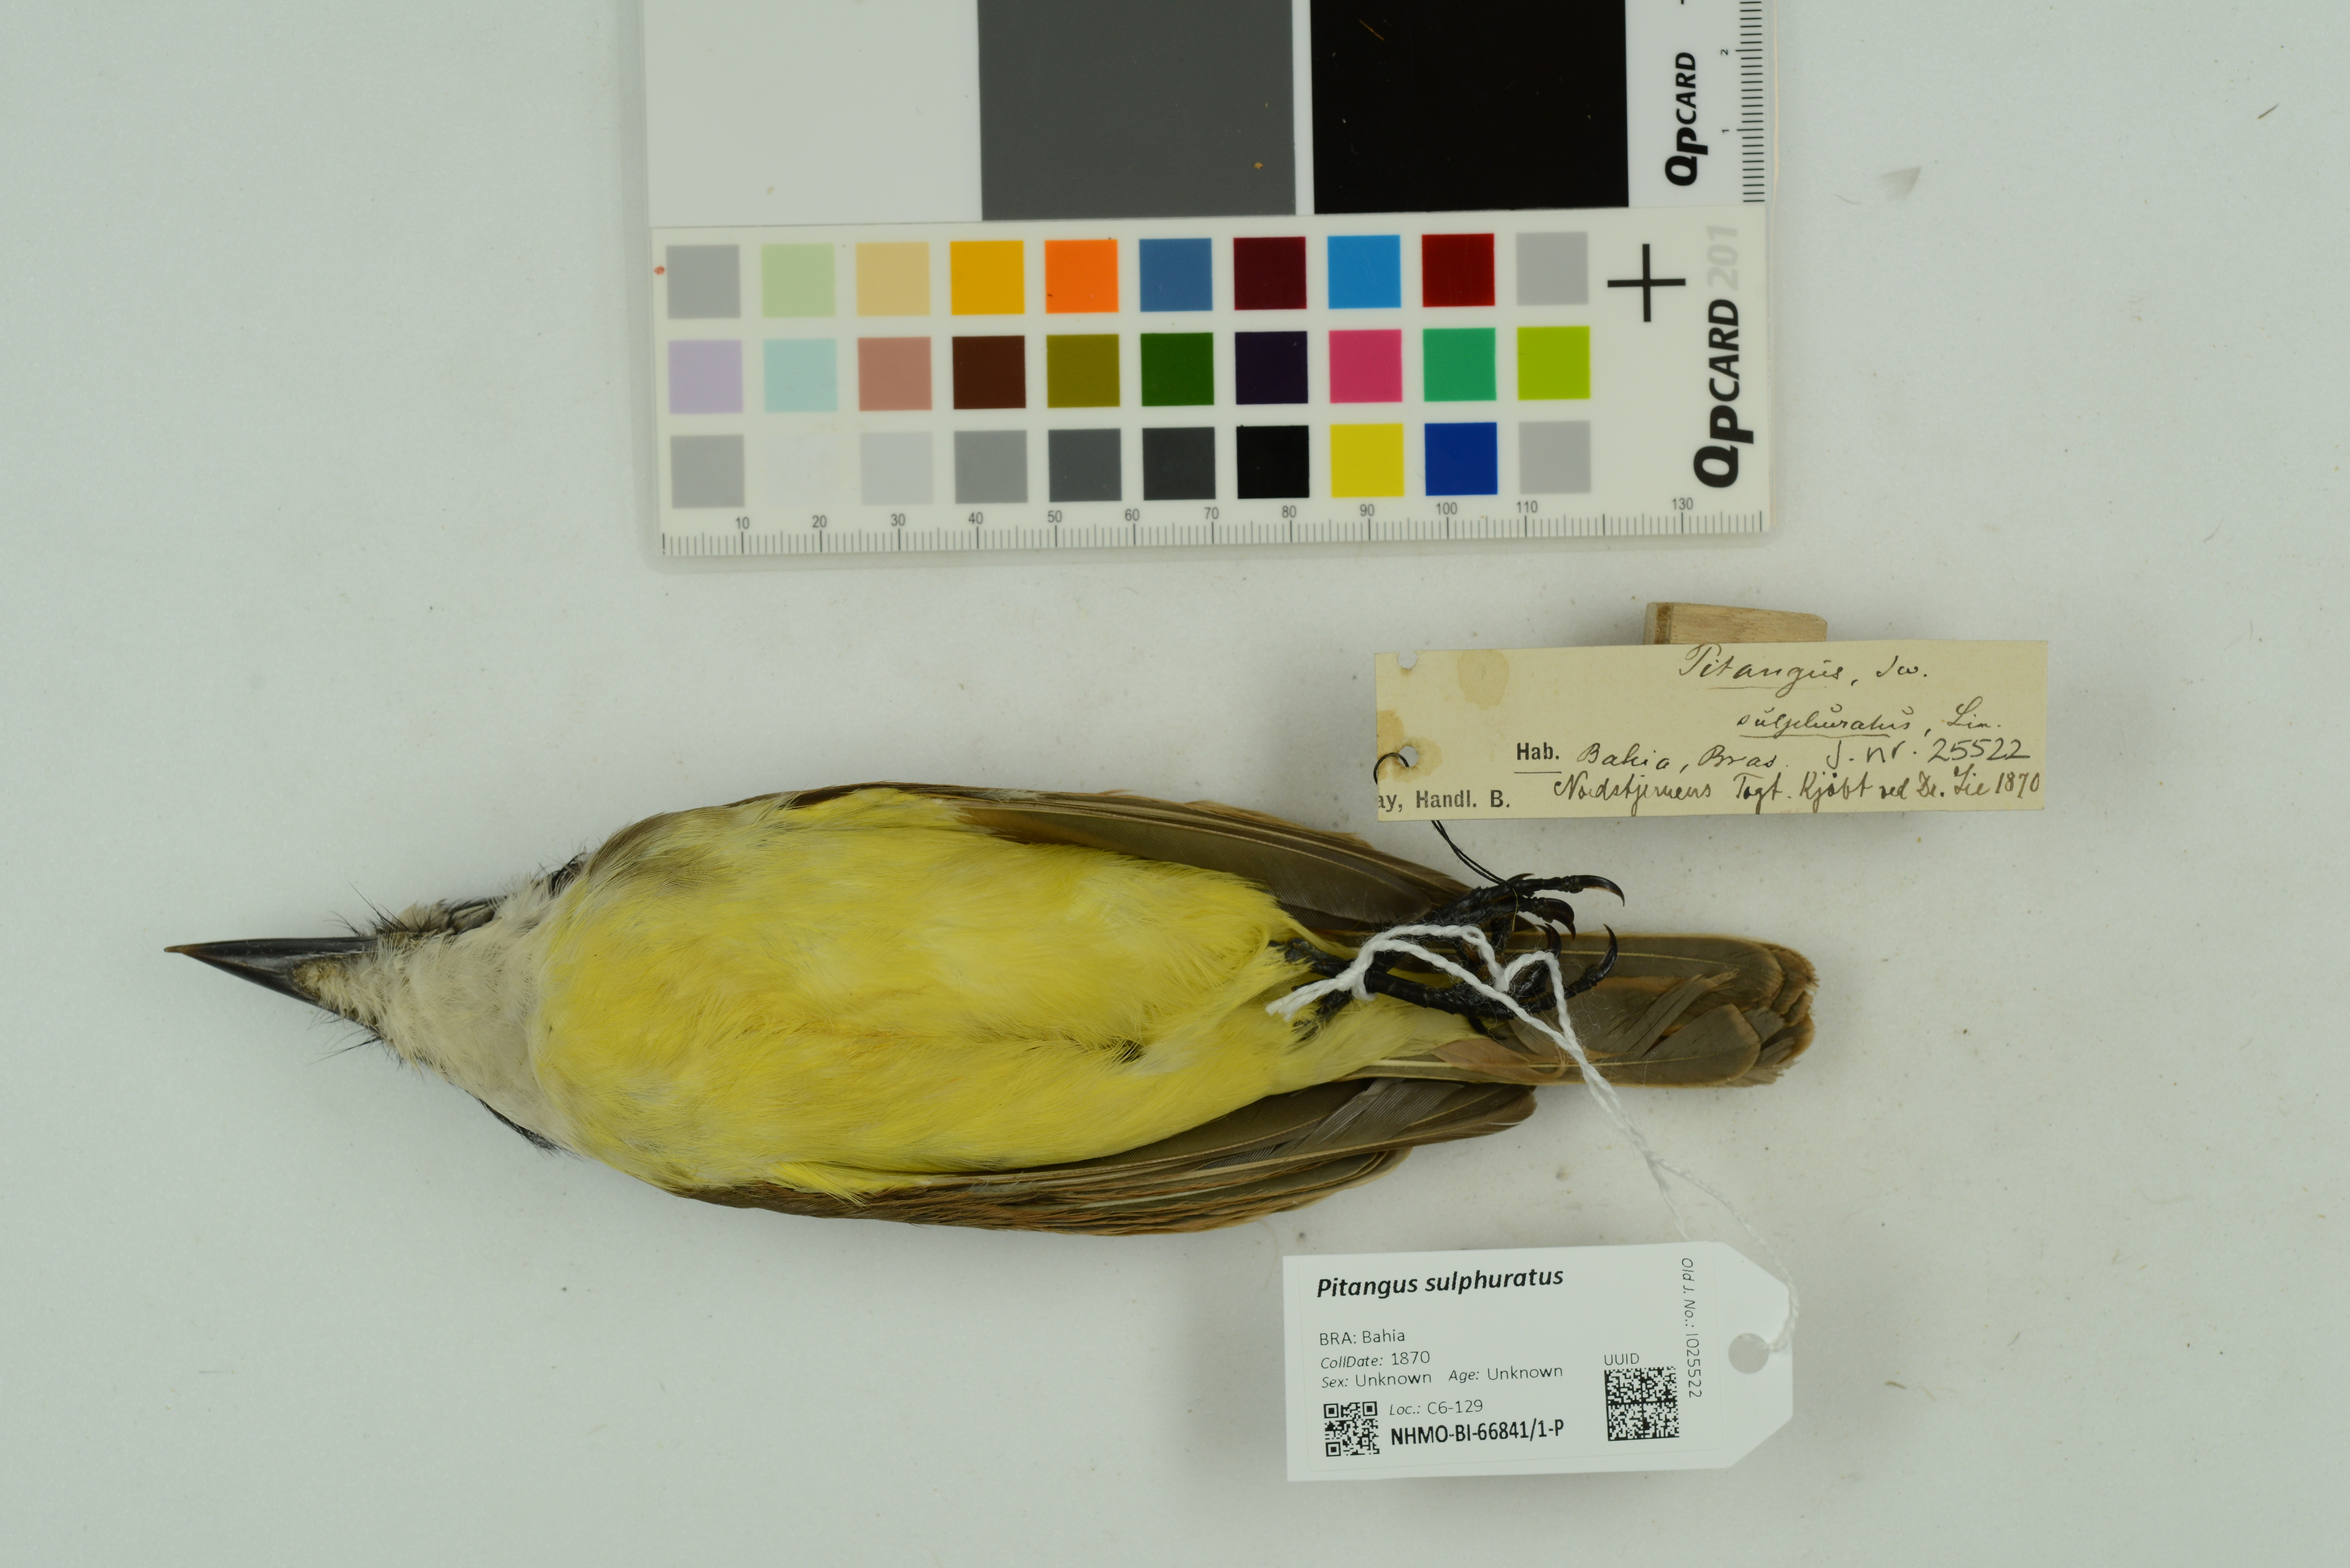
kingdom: Animalia
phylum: Chordata
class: Aves
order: Passeriformes
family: Tyrannidae
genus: Pitangus
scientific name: Pitangus sulphuratus
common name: Great kiskadee
